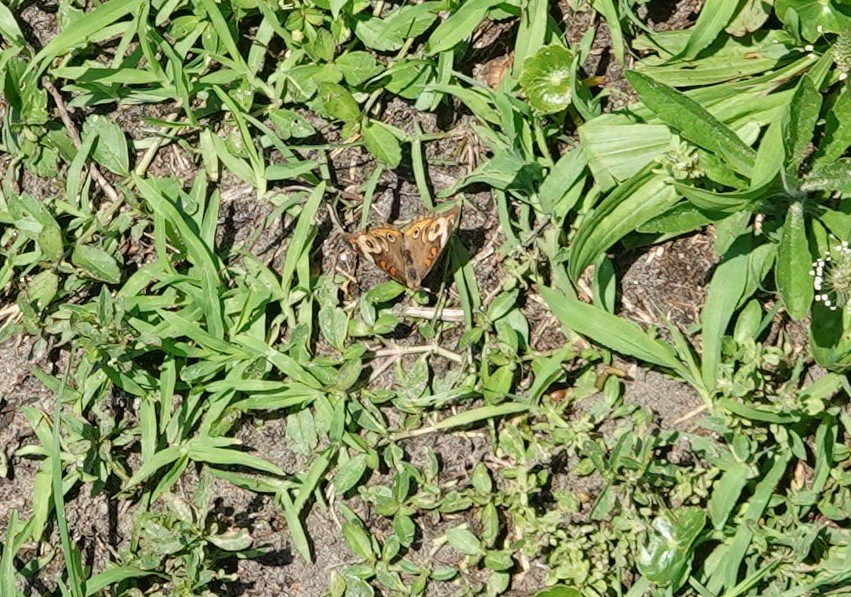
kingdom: Animalia
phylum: Arthropoda
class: Insecta
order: Lepidoptera
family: Nymphalidae
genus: Junonia
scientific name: Junonia coenia
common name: Common Buckeye
